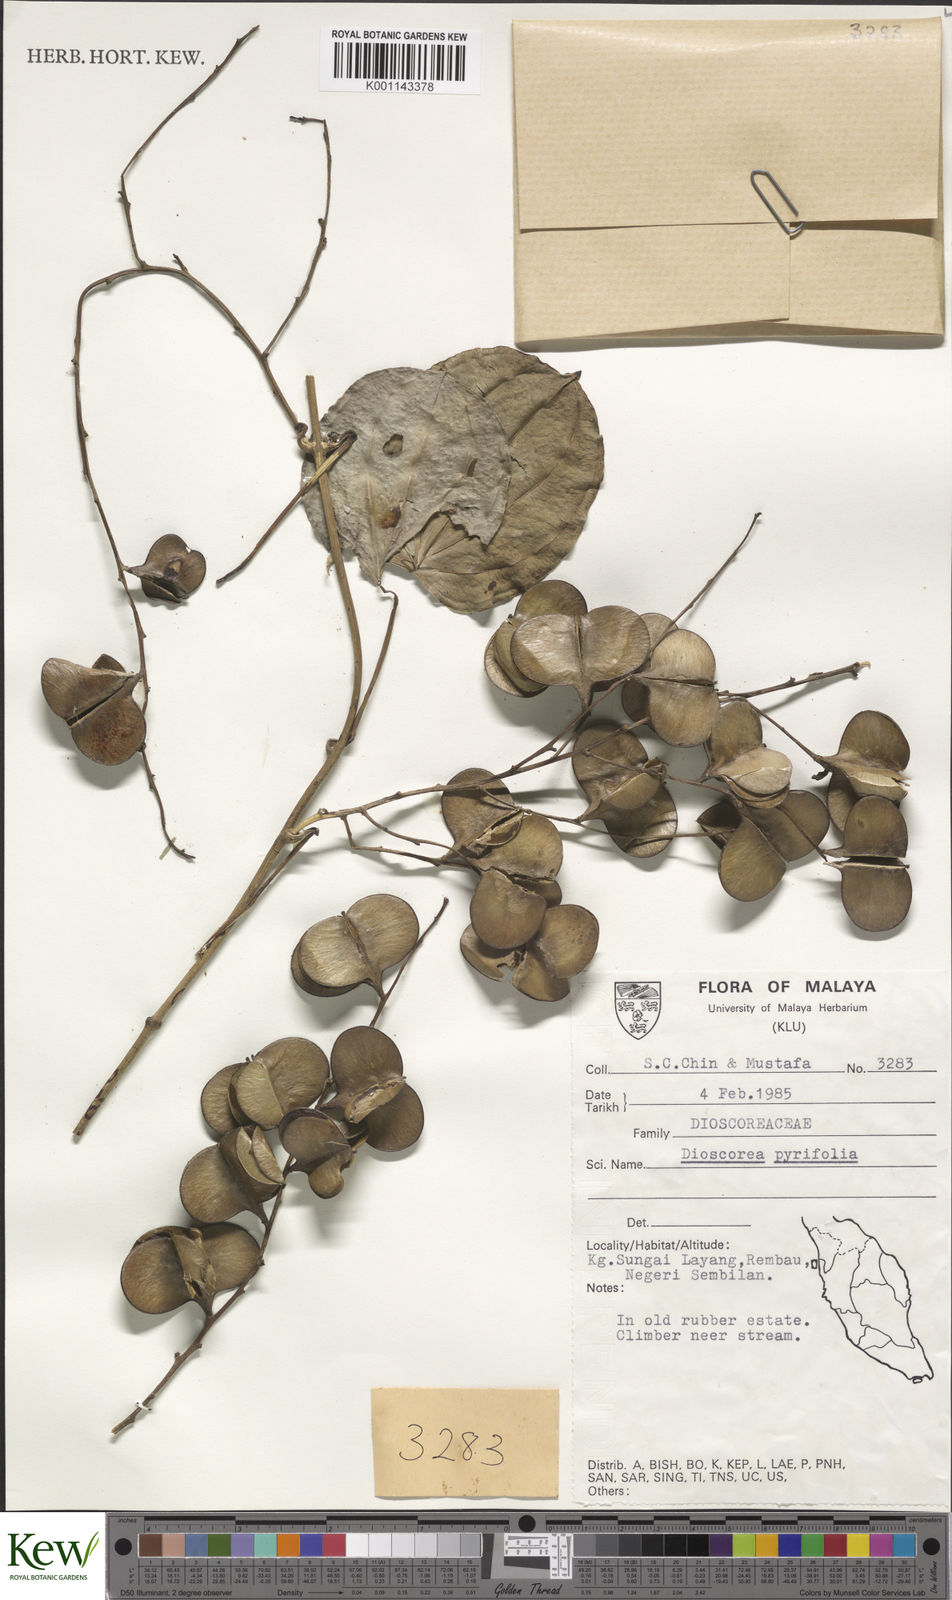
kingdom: Plantae
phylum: Tracheophyta
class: Liliopsida
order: Dioscoreales
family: Dioscoreaceae
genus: Dioscorea
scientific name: Dioscorea pyrifolia
